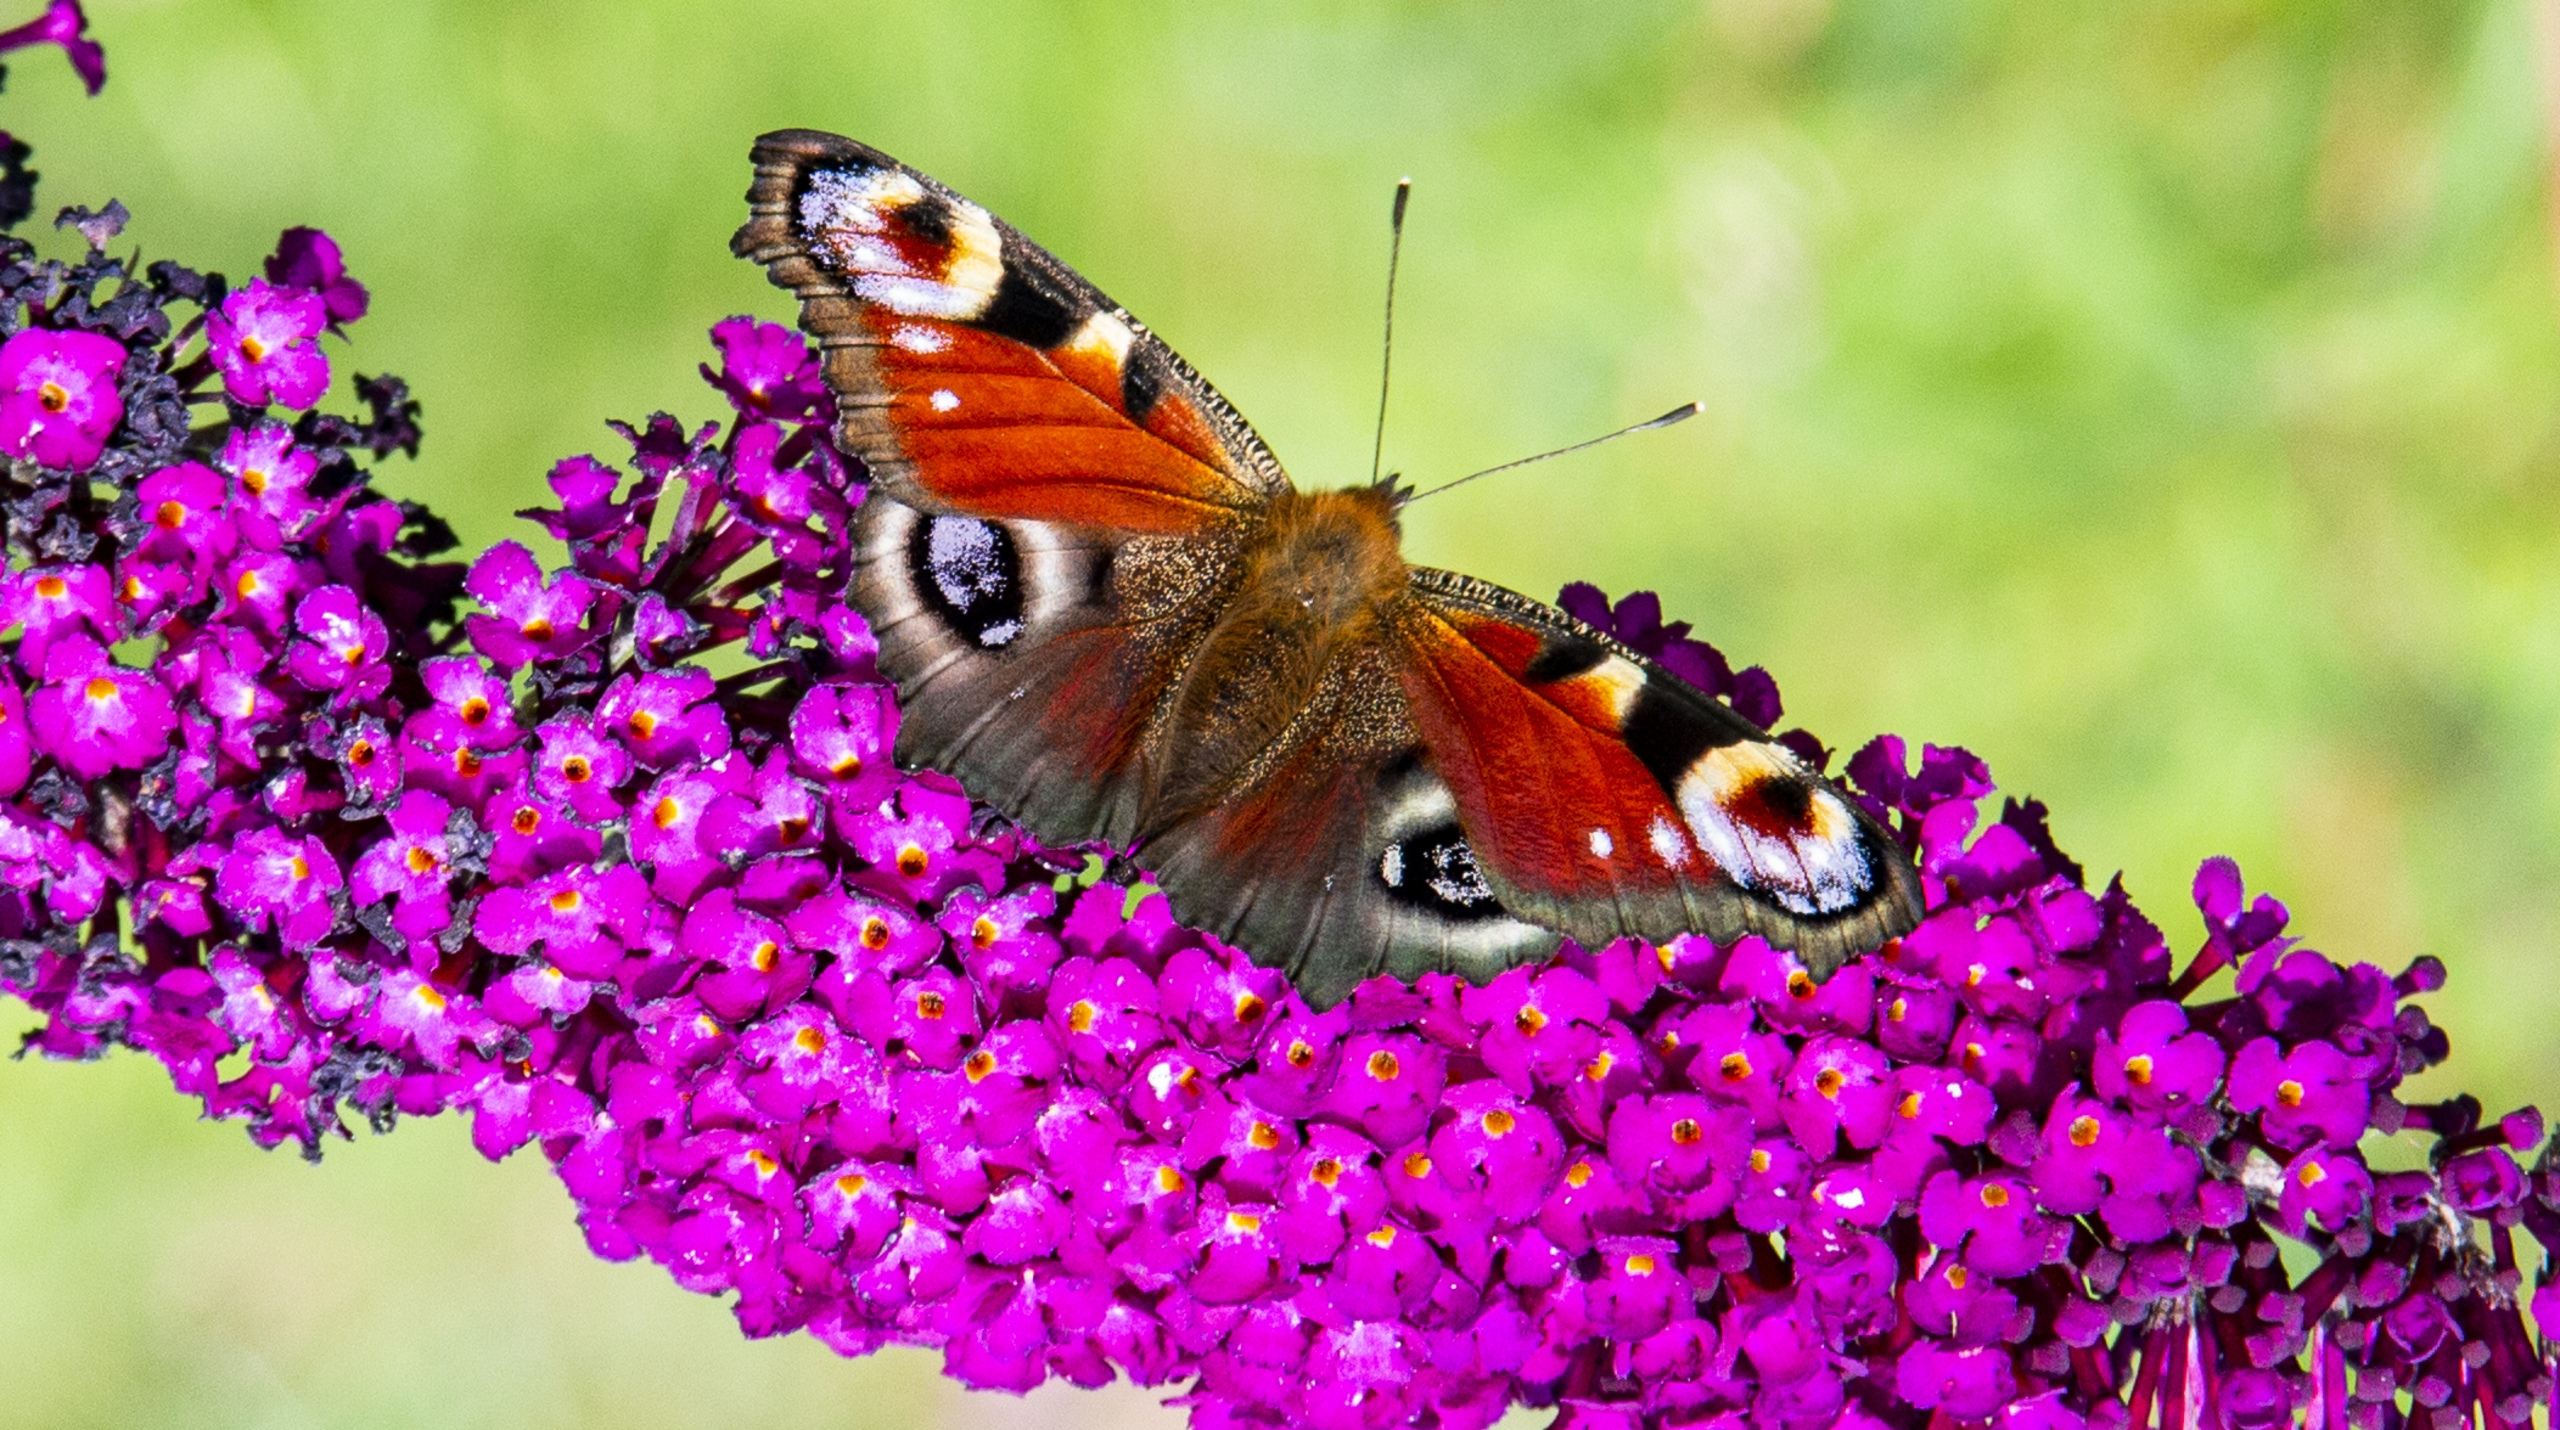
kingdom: Animalia
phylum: Arthropoda
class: Insecta
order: Lepidoptera
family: Nymphalidae
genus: Aglais
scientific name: Aglais io
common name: Dagpåfugleøje
